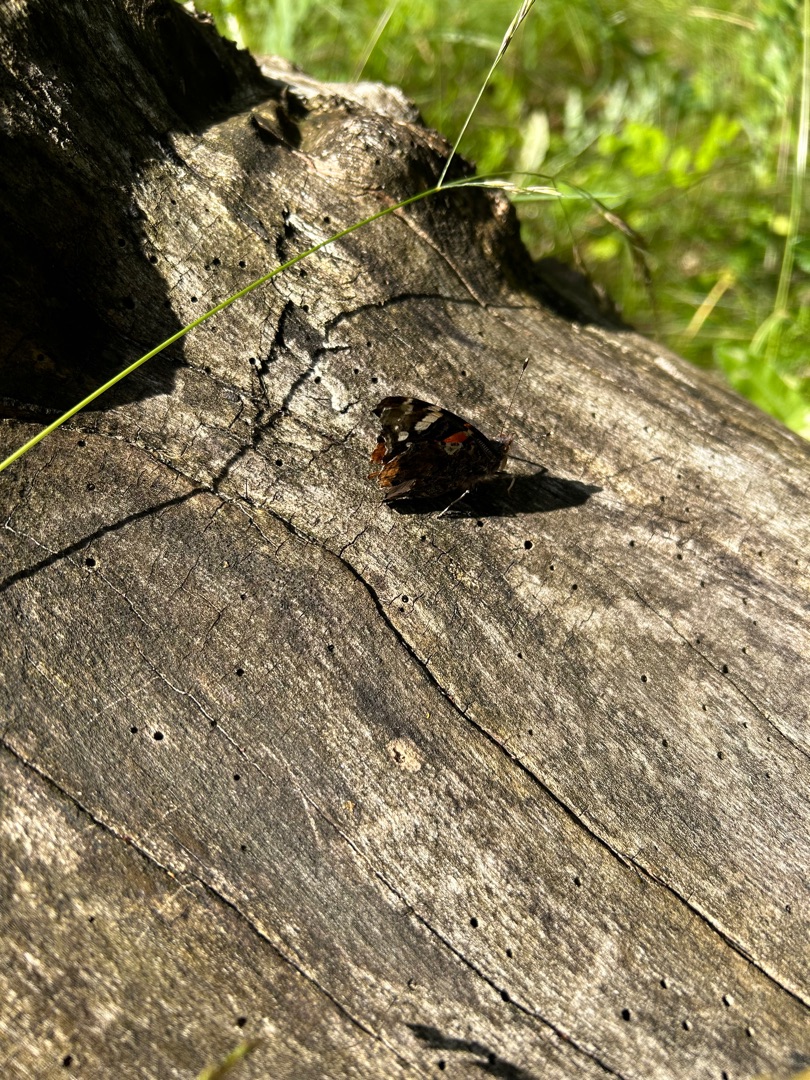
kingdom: Animalia
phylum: Arthropoda
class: Insecta
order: Lepidoptera
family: Nymphalidae
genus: Vanessa
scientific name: Vanessa atalanta
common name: Admiral
